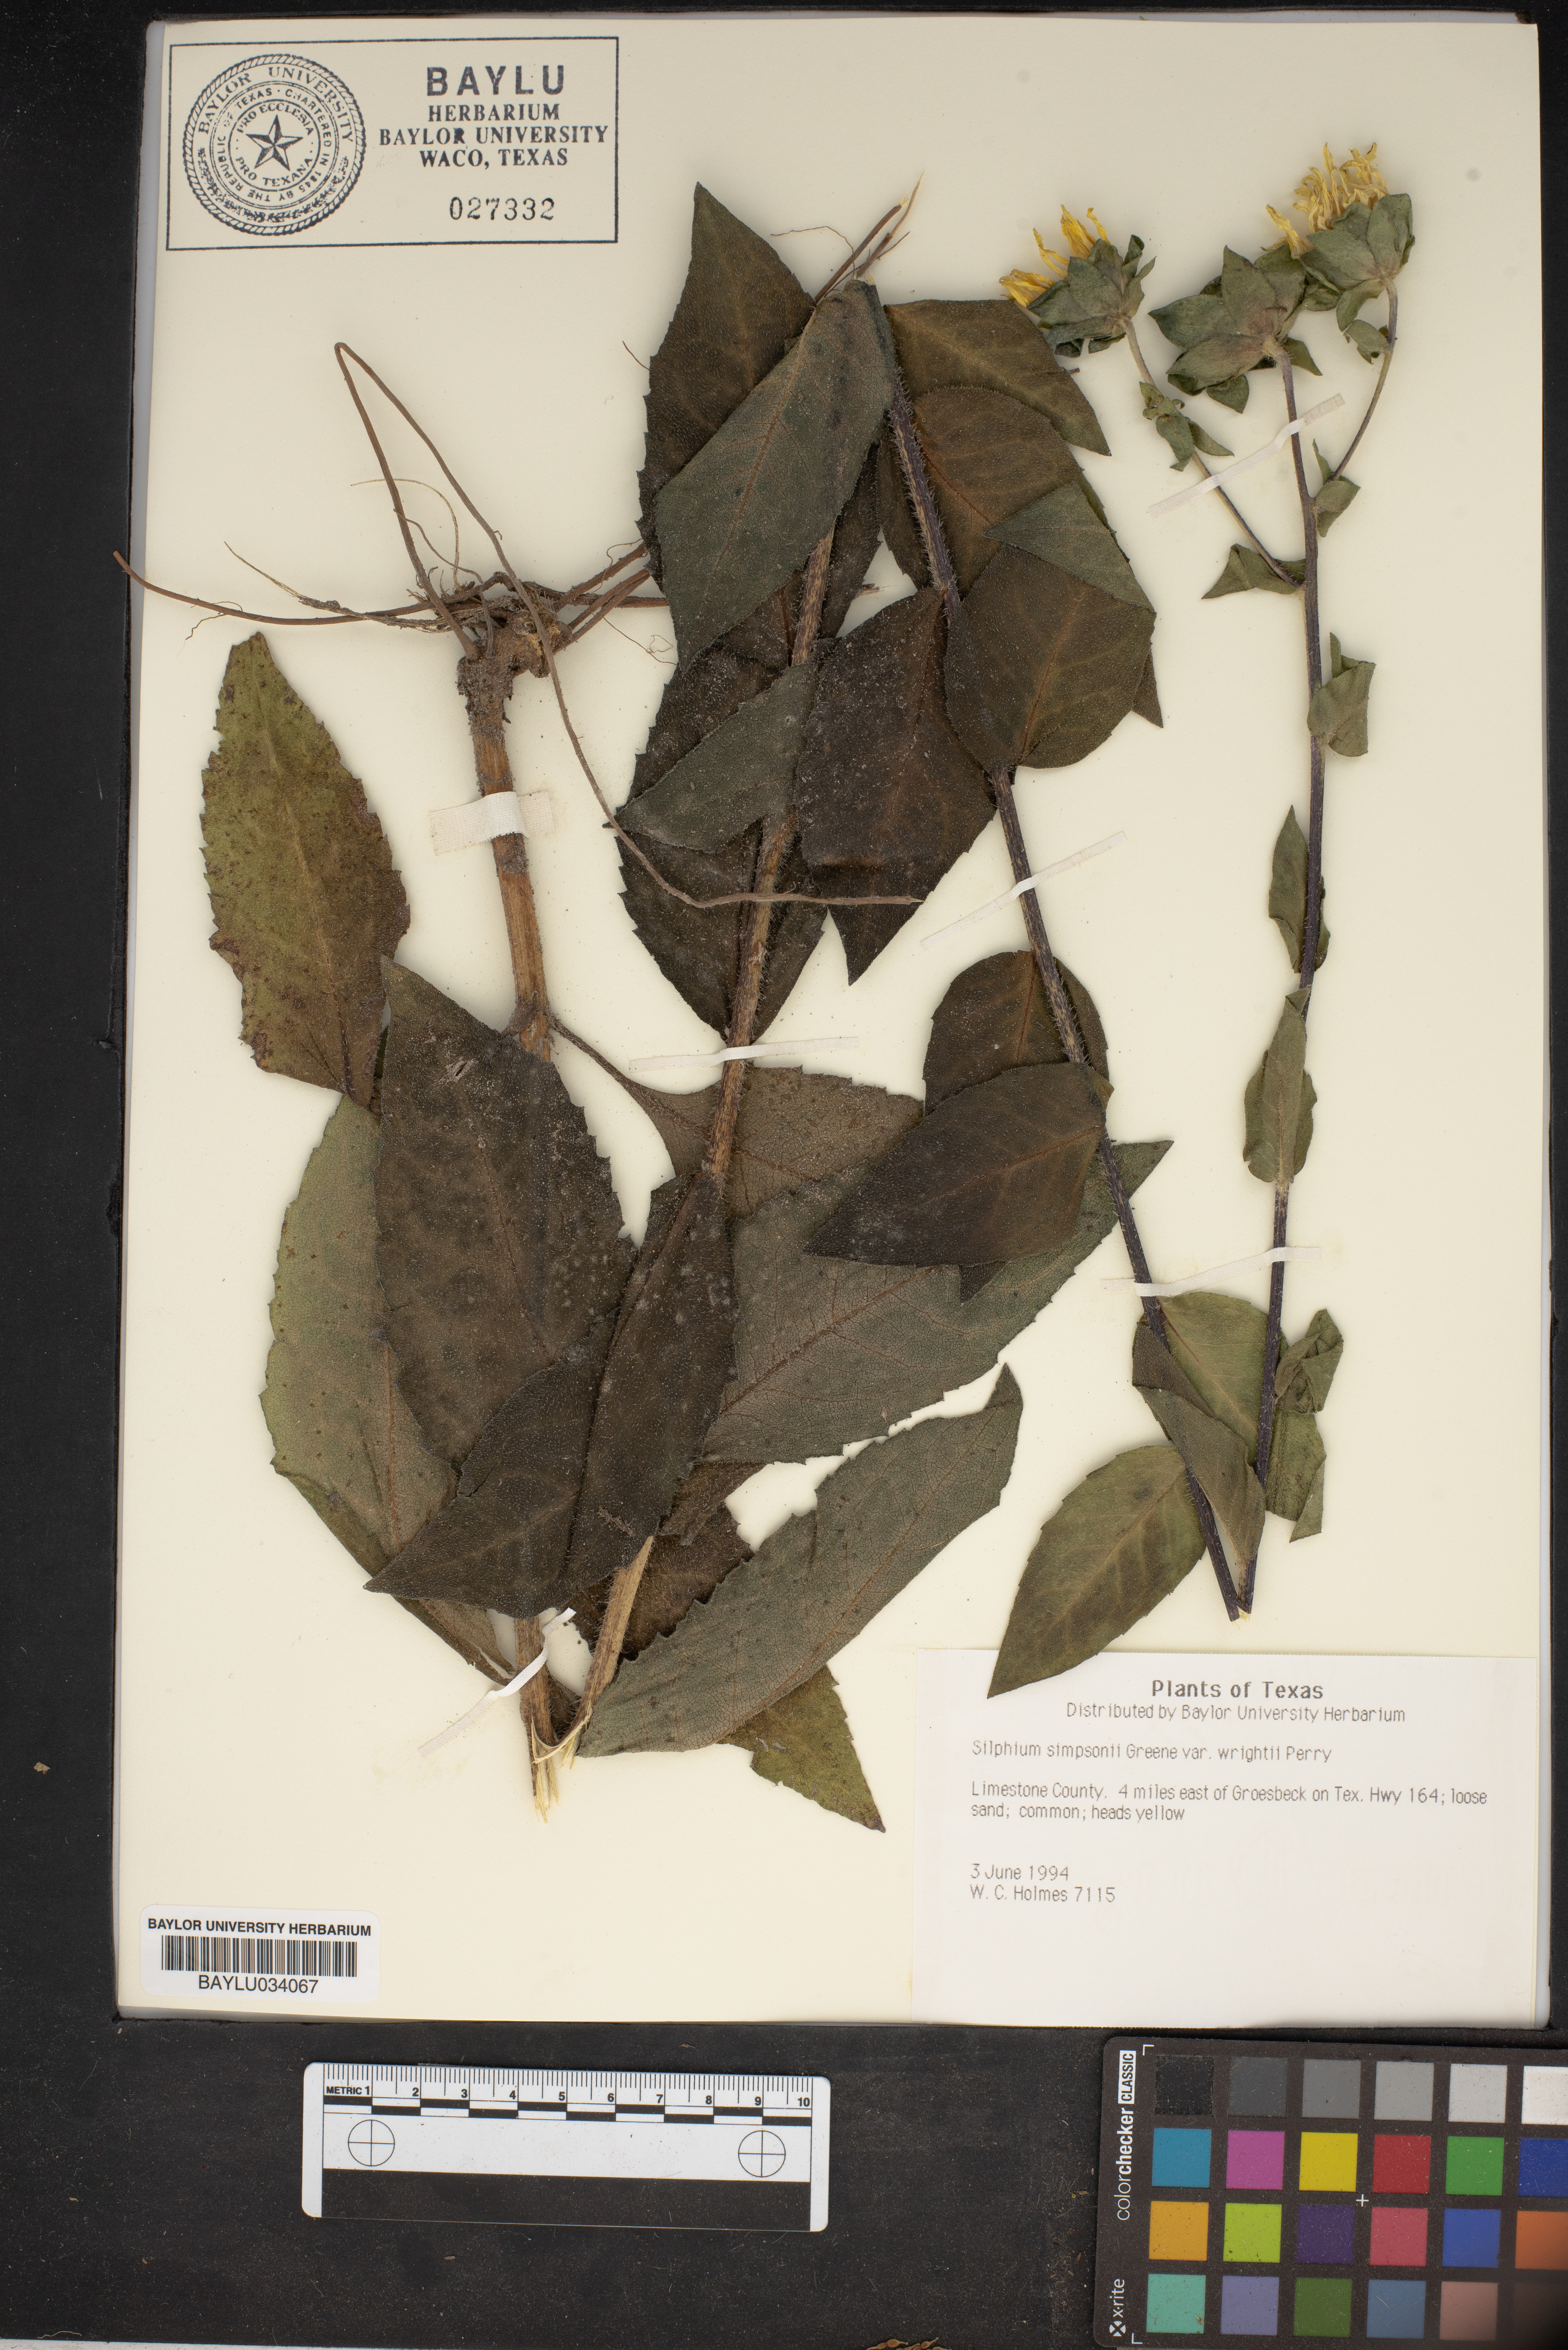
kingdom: Plantae
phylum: Tracheophyta
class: Magnoliopsida
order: Asterales
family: Asteraceae
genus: Silphium
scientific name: Silphium radula
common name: Roughleaf rosinweed
